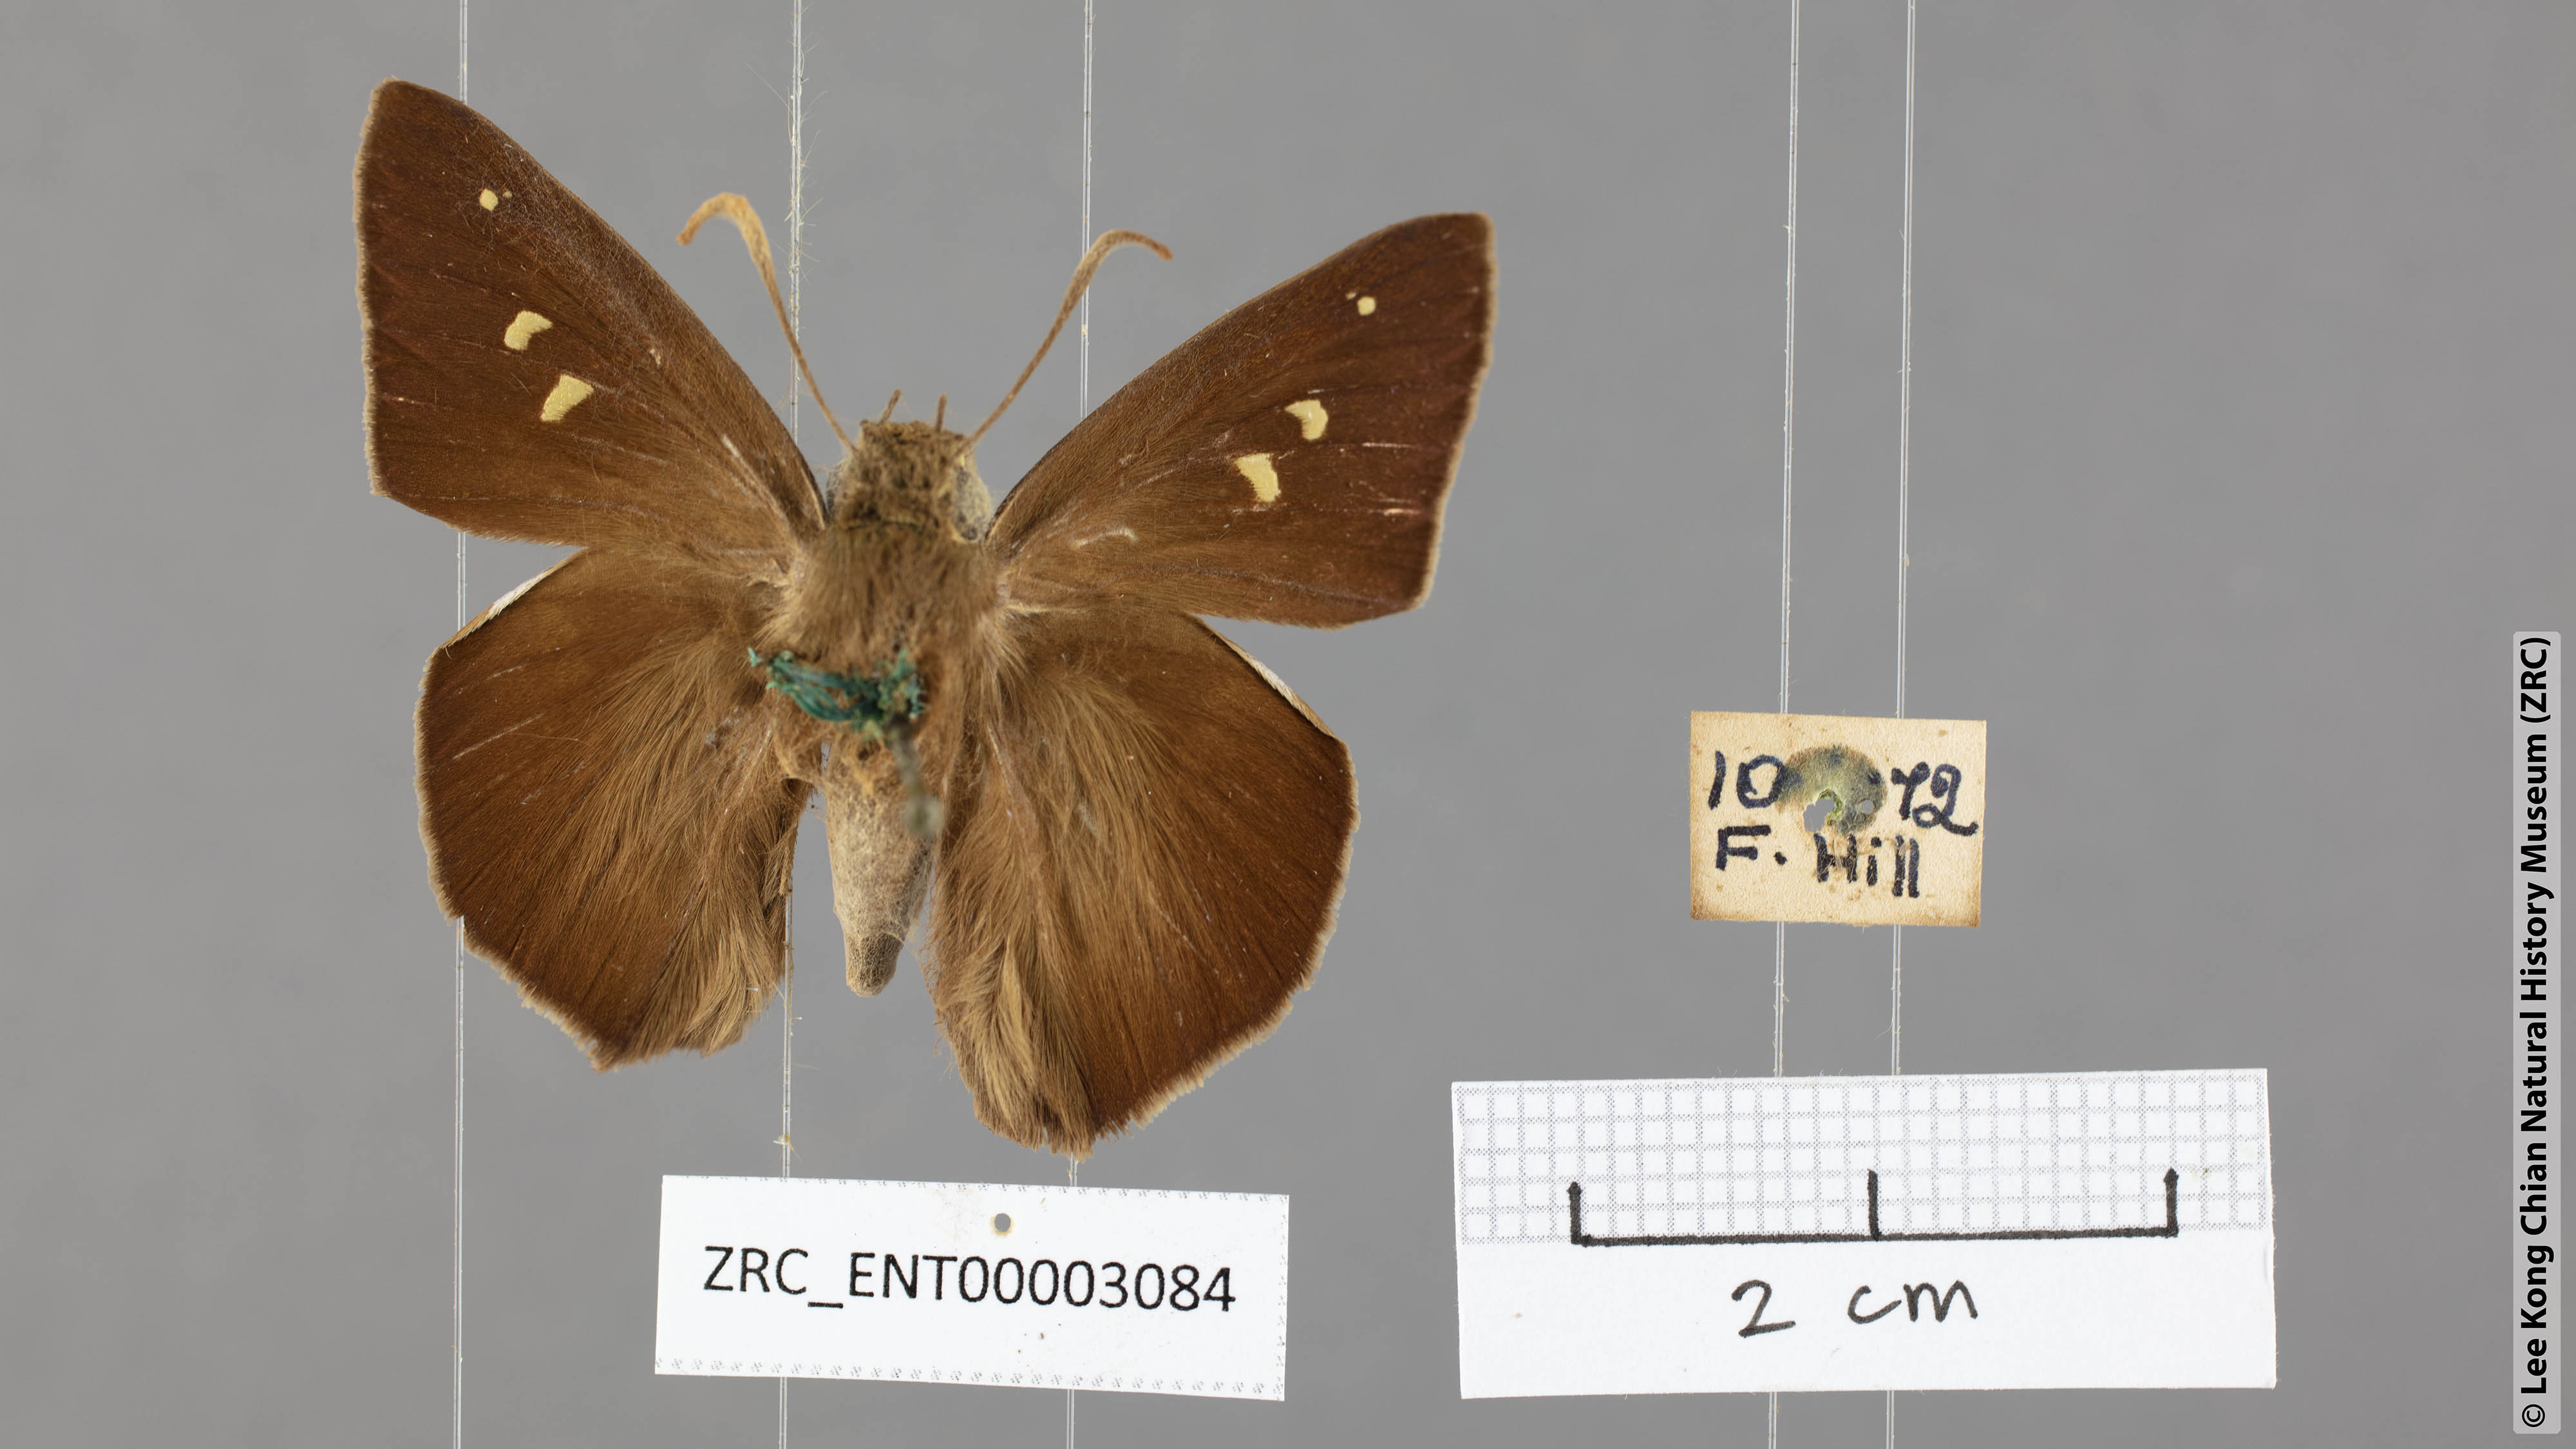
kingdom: Animalia
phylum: Arthropoda
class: Insecta
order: Lepidoptera
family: Hesperiidae
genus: Hasora
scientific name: Hasora vitta
